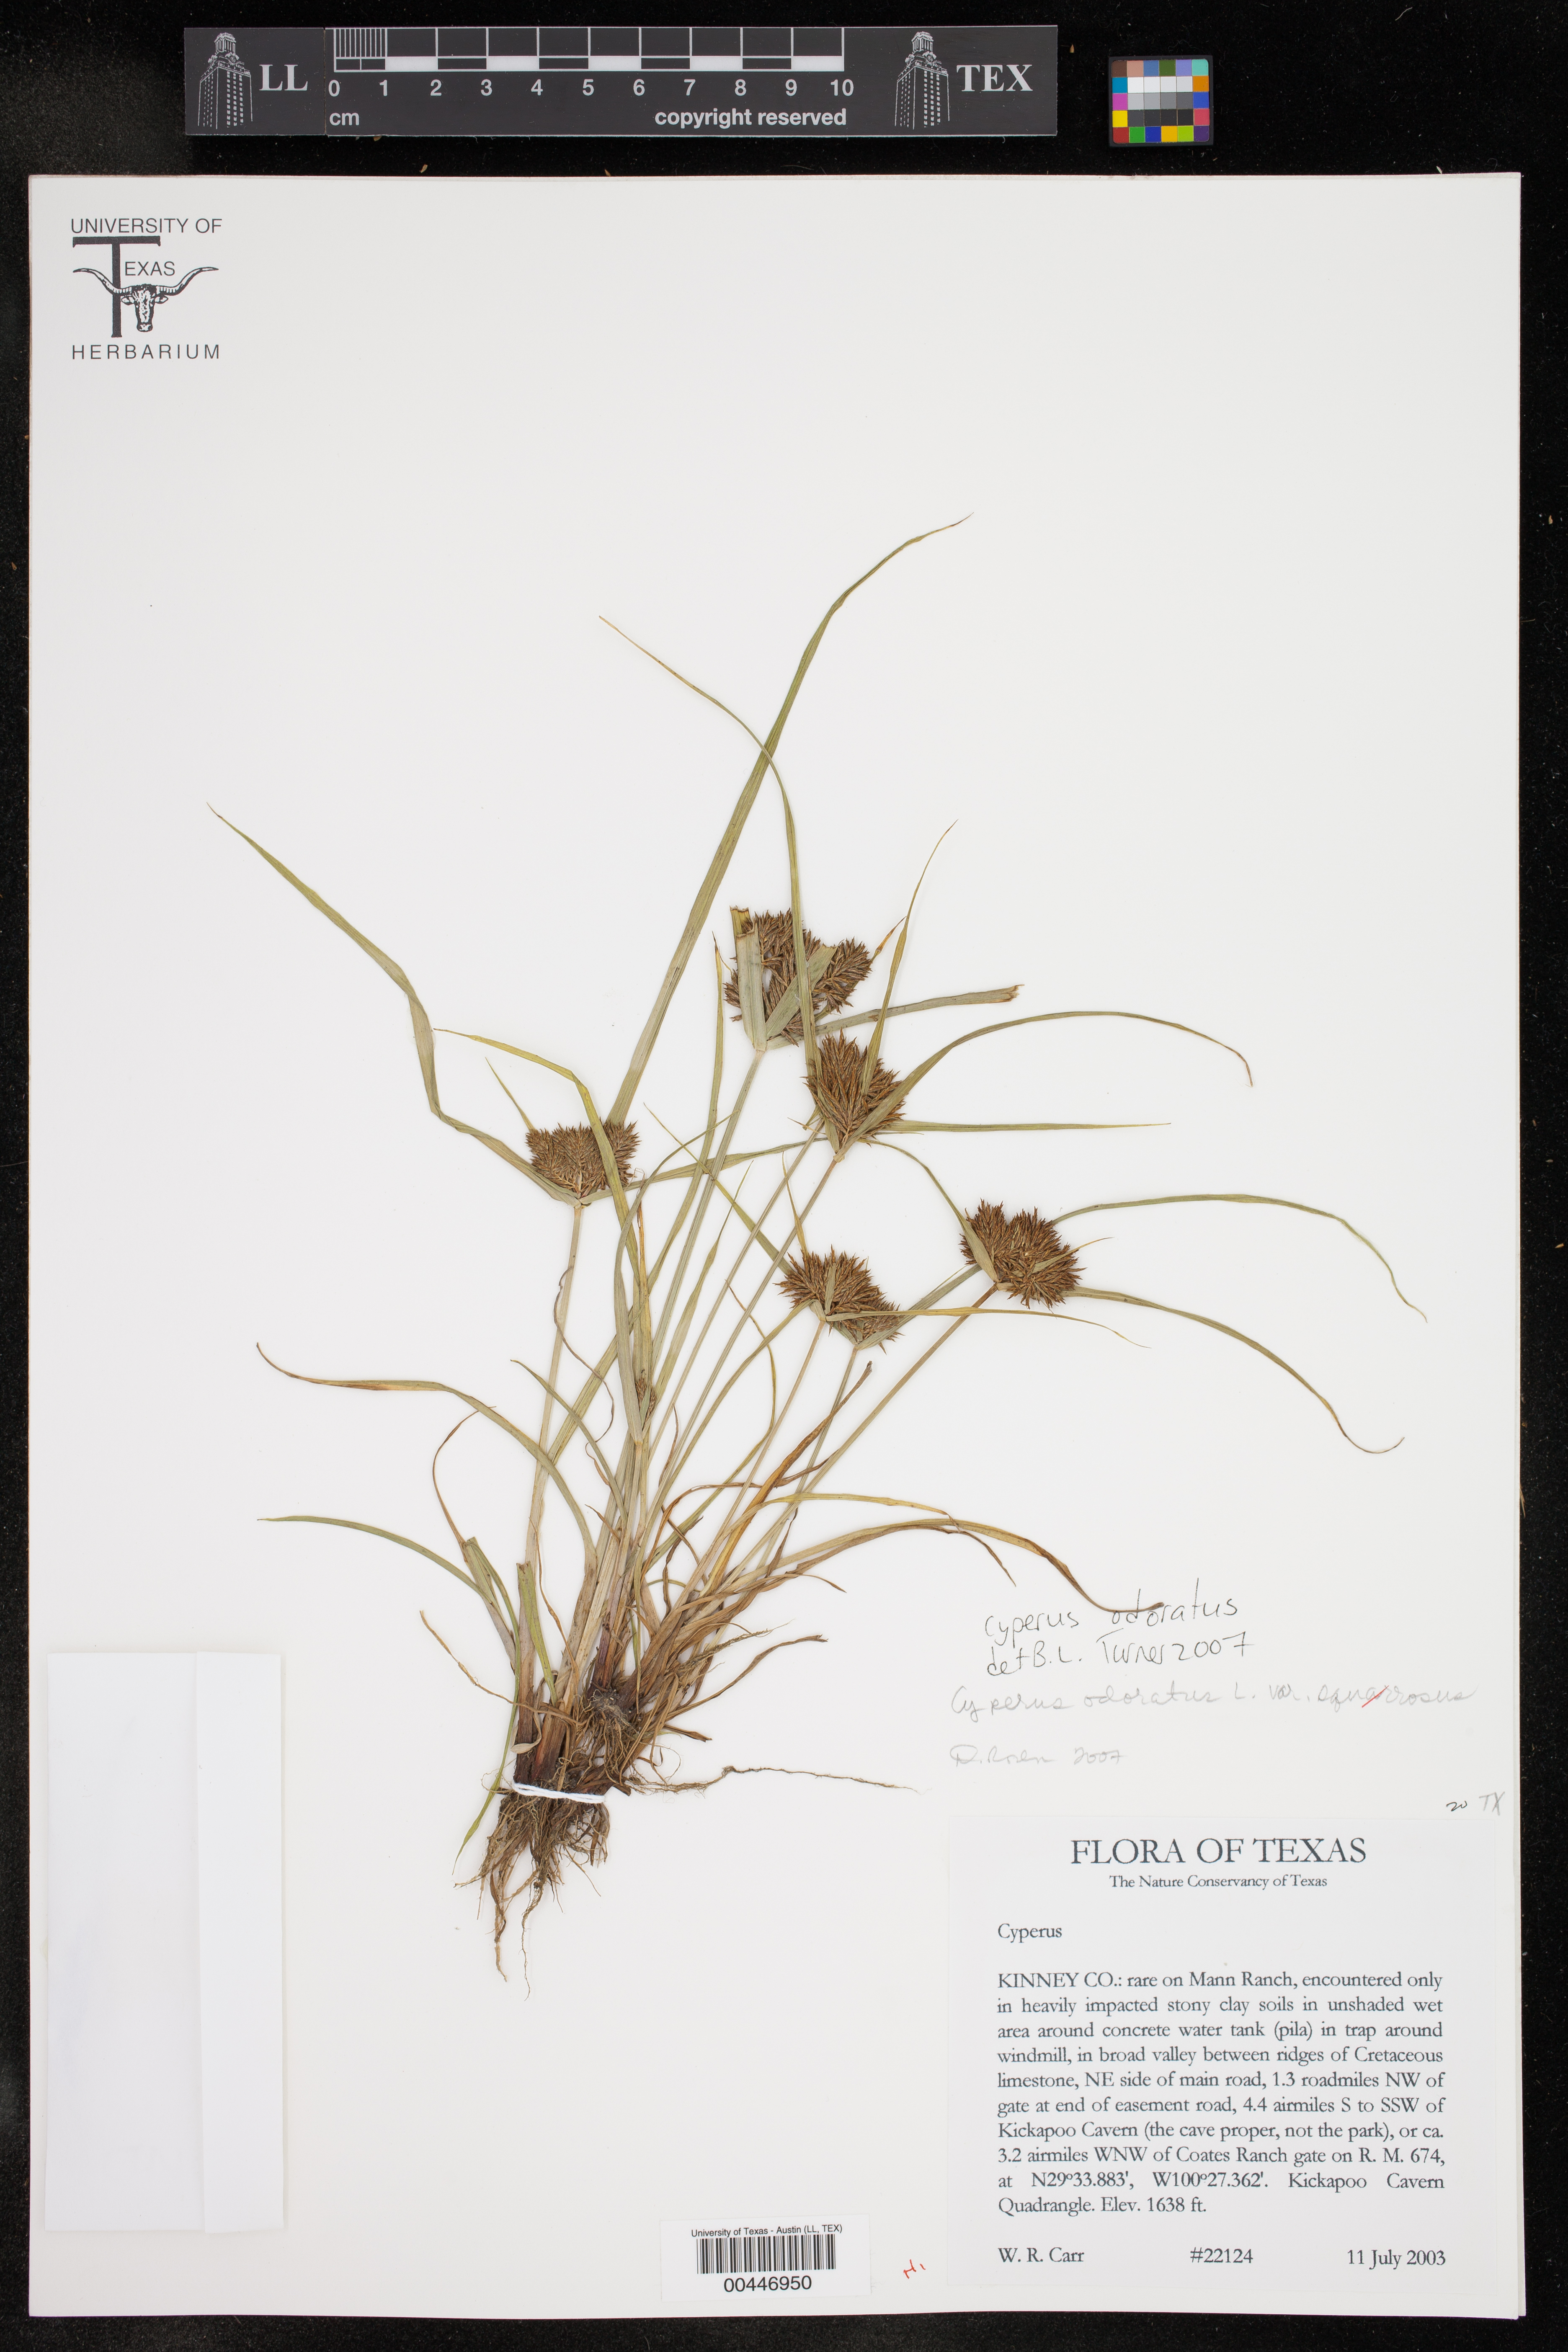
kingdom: Plantae
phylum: Tracheophyta
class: Liliopsida
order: Poales
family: Cyperaceae
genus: Cyperus
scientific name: Cyperus odoratus
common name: Fragrant flatsedge
